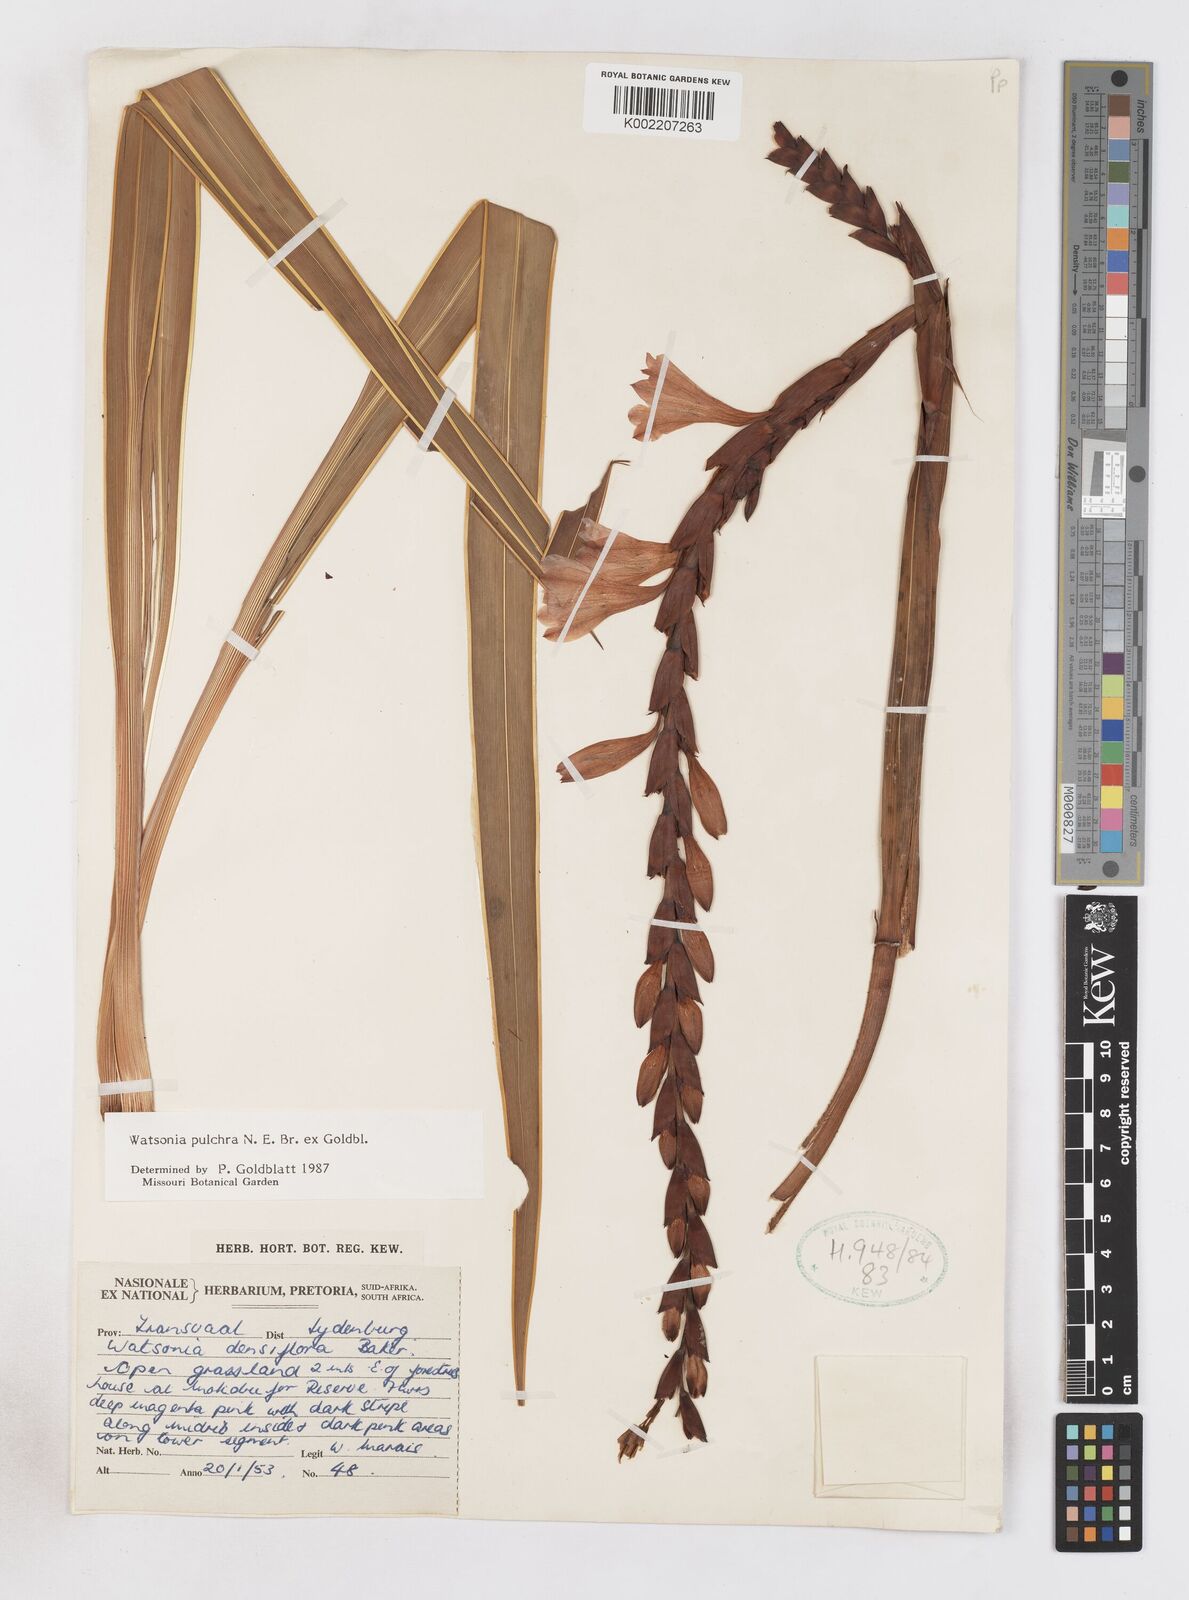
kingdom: Plantae
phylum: Tracheophyta
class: Liliopsida
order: Asparagales
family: Iridaceae
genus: Watsonia
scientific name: Watsonia pulchra
